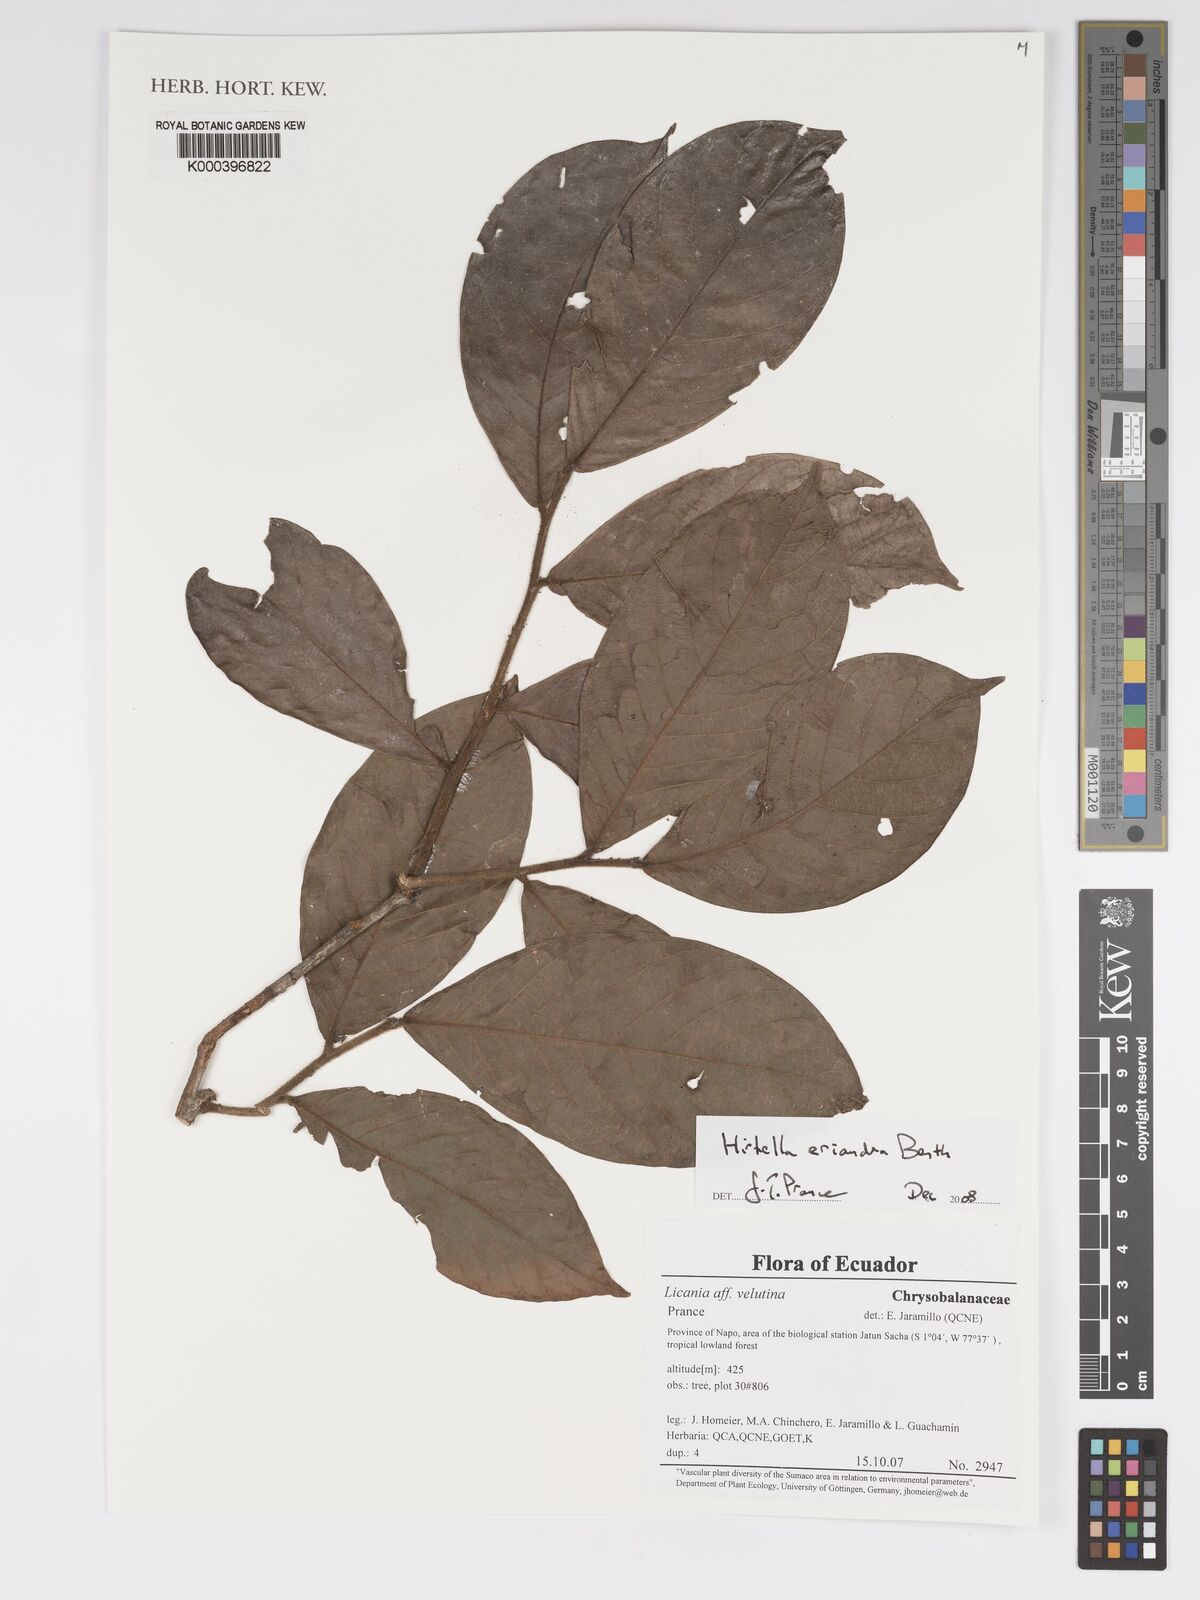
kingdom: Plantae
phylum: Tracheophyta
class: Magnoliopsida
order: Malpighiales
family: Chrysobalanaceae
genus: Hirtella
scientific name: Hirtella eriandra
